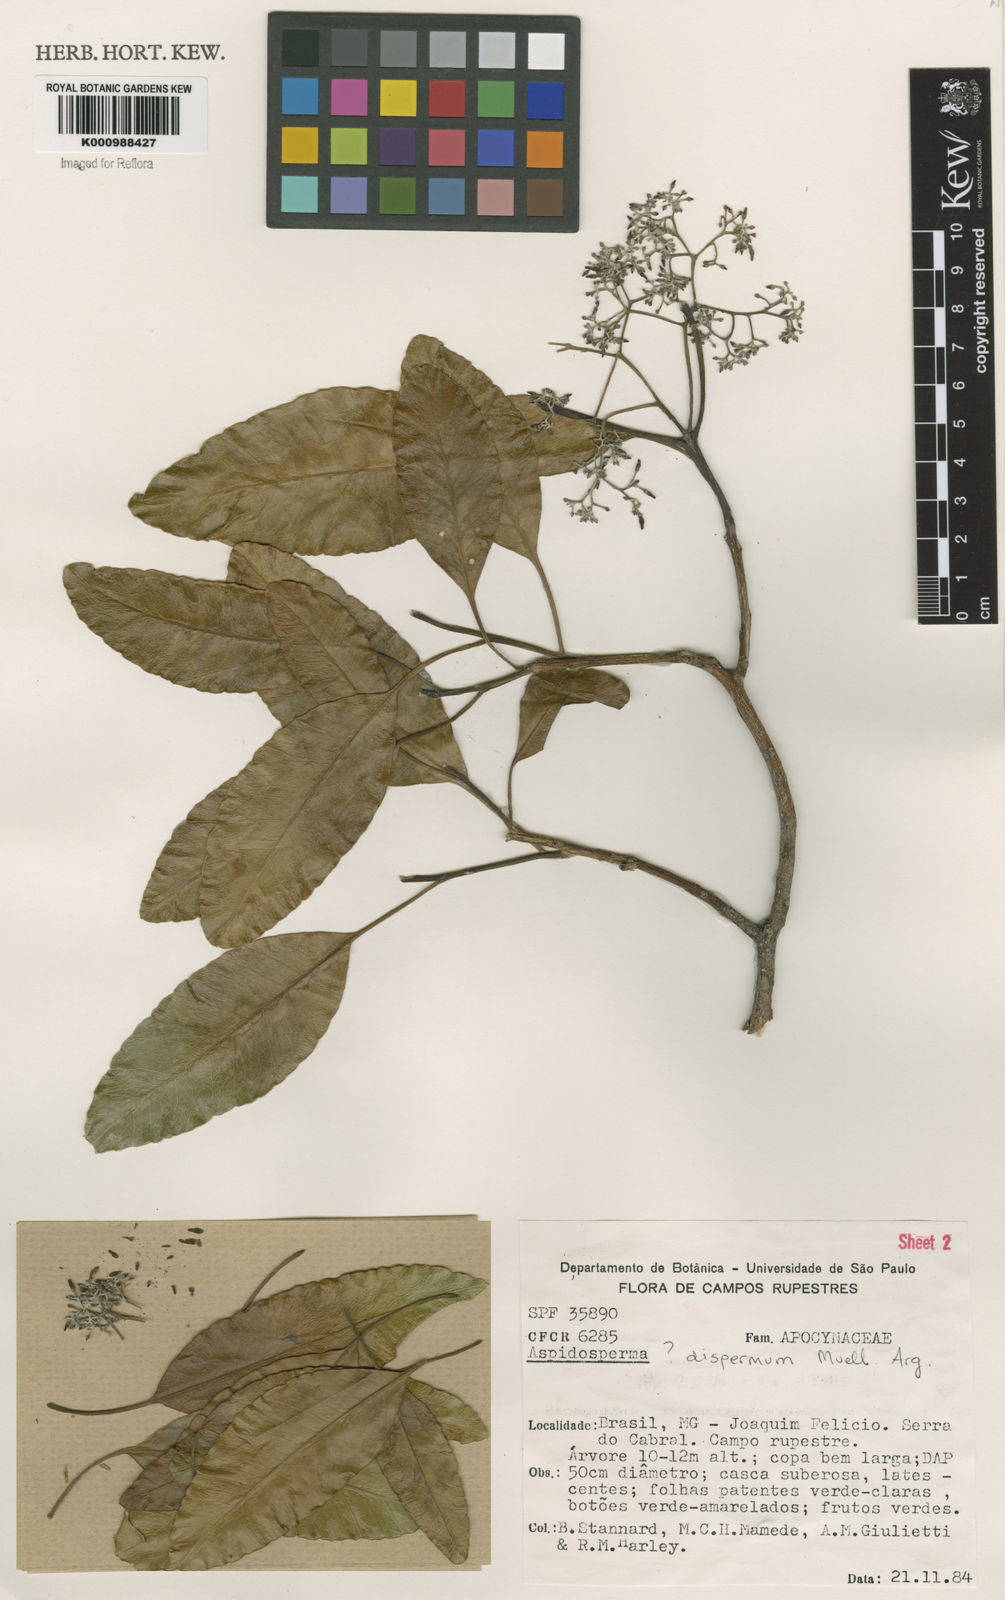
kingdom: Plantae
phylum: Tracheophyta
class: Magnoliopsida
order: Gentianales
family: Apocynaceae
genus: Aspidosperma
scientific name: Aspidosperma
